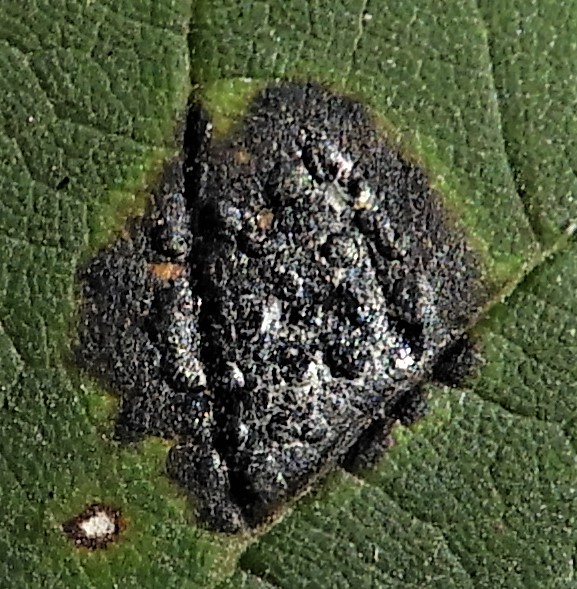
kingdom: Fungi
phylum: Ascomycota
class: Leotiomycetes
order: Rhytismatales
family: Rhytismataceae
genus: Rhytisma
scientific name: Rhytisma acerinum
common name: ahorn-rynkeplet
